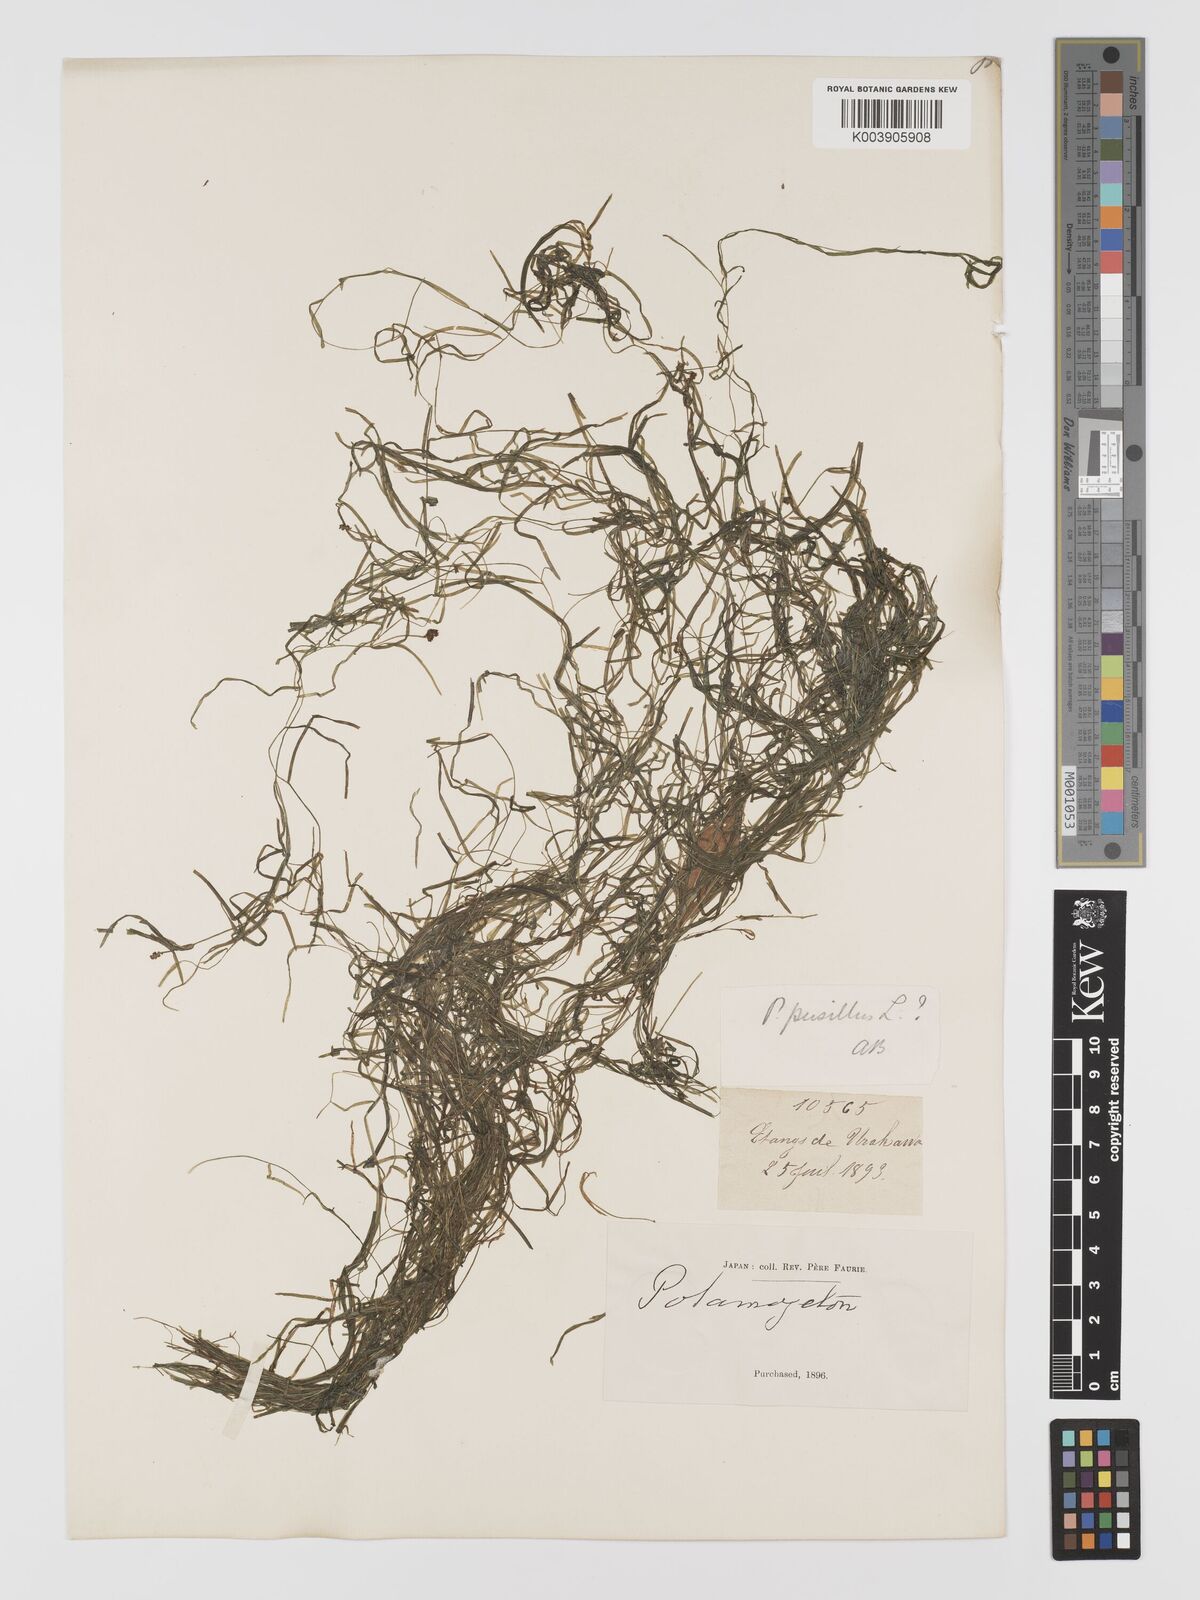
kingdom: Plantae
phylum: Tracheophyta
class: Liliopsida
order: Alismatales
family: Potamogetonaceae
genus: Potamogeton
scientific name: Potamogeton pusillus
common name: Lesser pondweed
